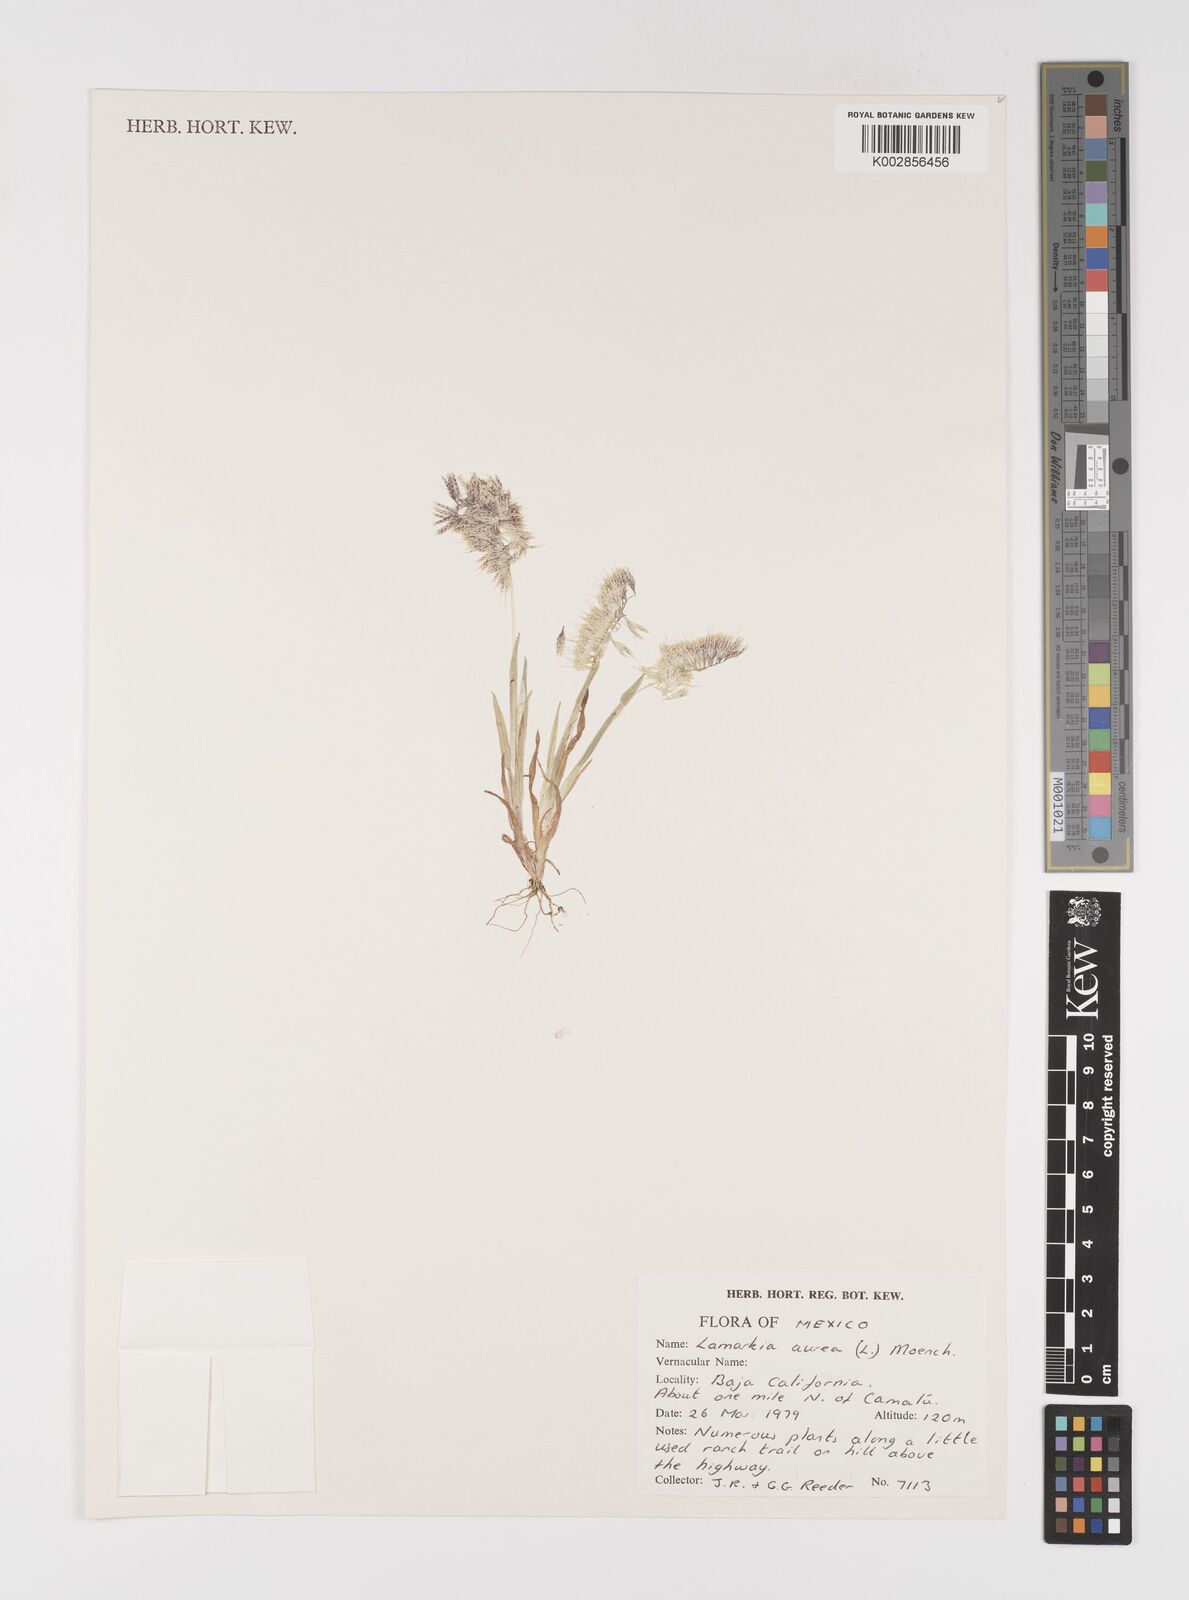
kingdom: Plantae
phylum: Tracheophyta
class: Liliopsida
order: Poales
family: Poaceae
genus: Lamarckia
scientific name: Lamarckia aurea
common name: Golden dog's-tail
